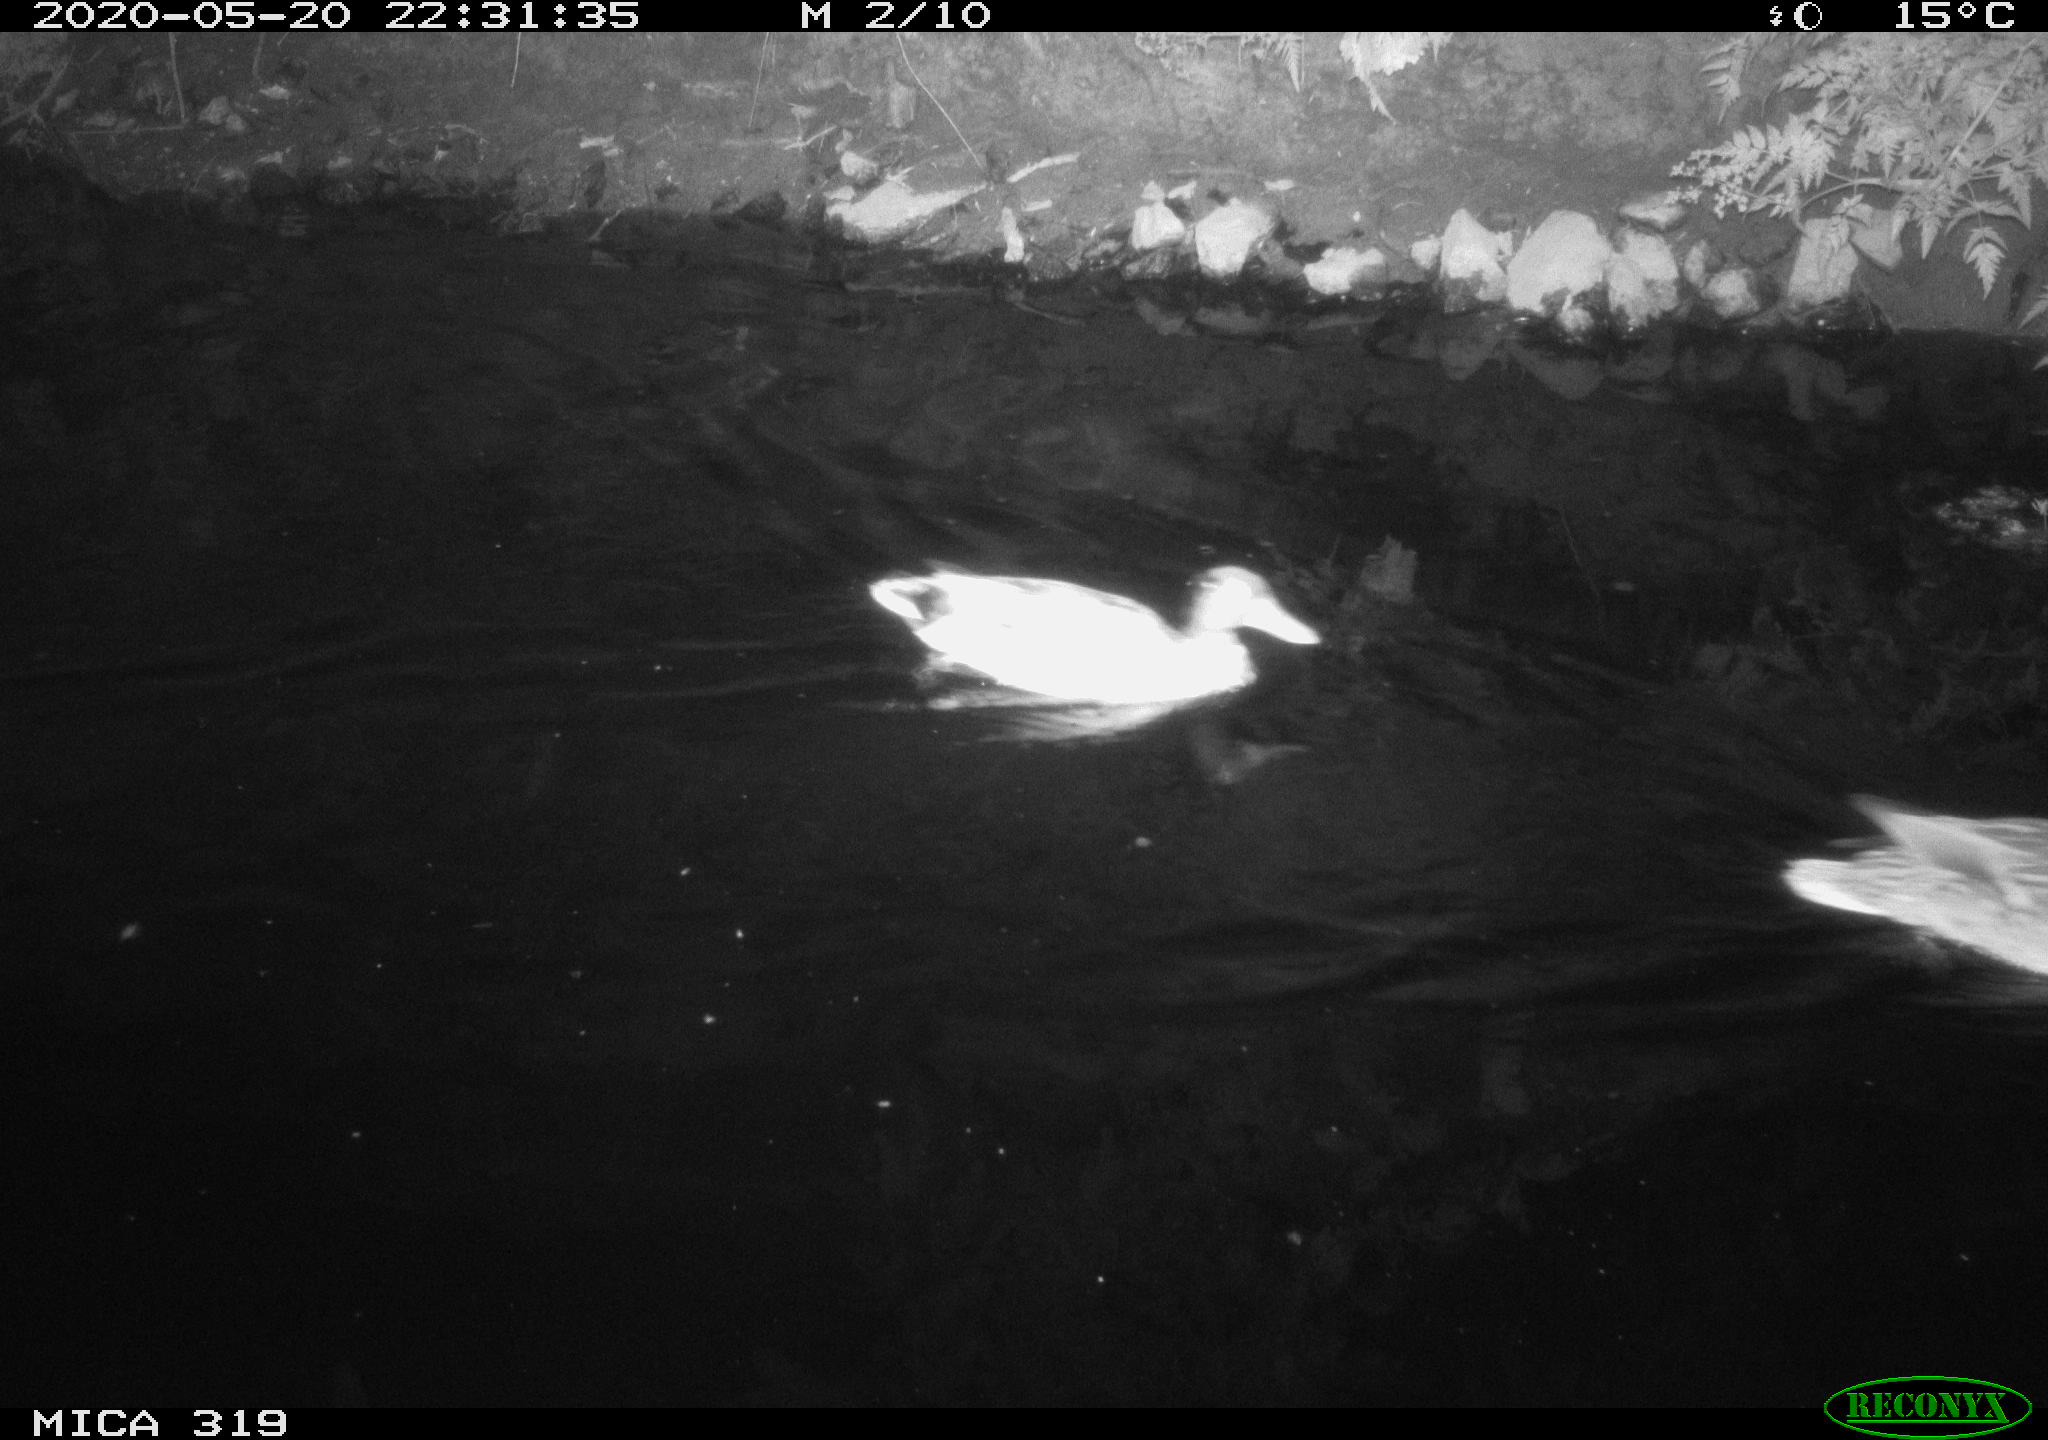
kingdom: Animalia
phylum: Chordata
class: Aves
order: Anseriformes
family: Anatidae
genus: Anas
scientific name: Anas platyrhynchos
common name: Mallard
